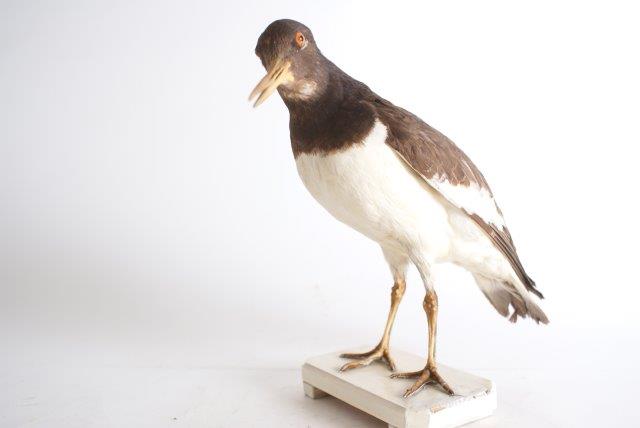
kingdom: Animalia
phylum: Chordata
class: Aves
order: Charadriiformes
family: Haematopodidae
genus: Haematopus
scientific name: Haematopus ostralegus
